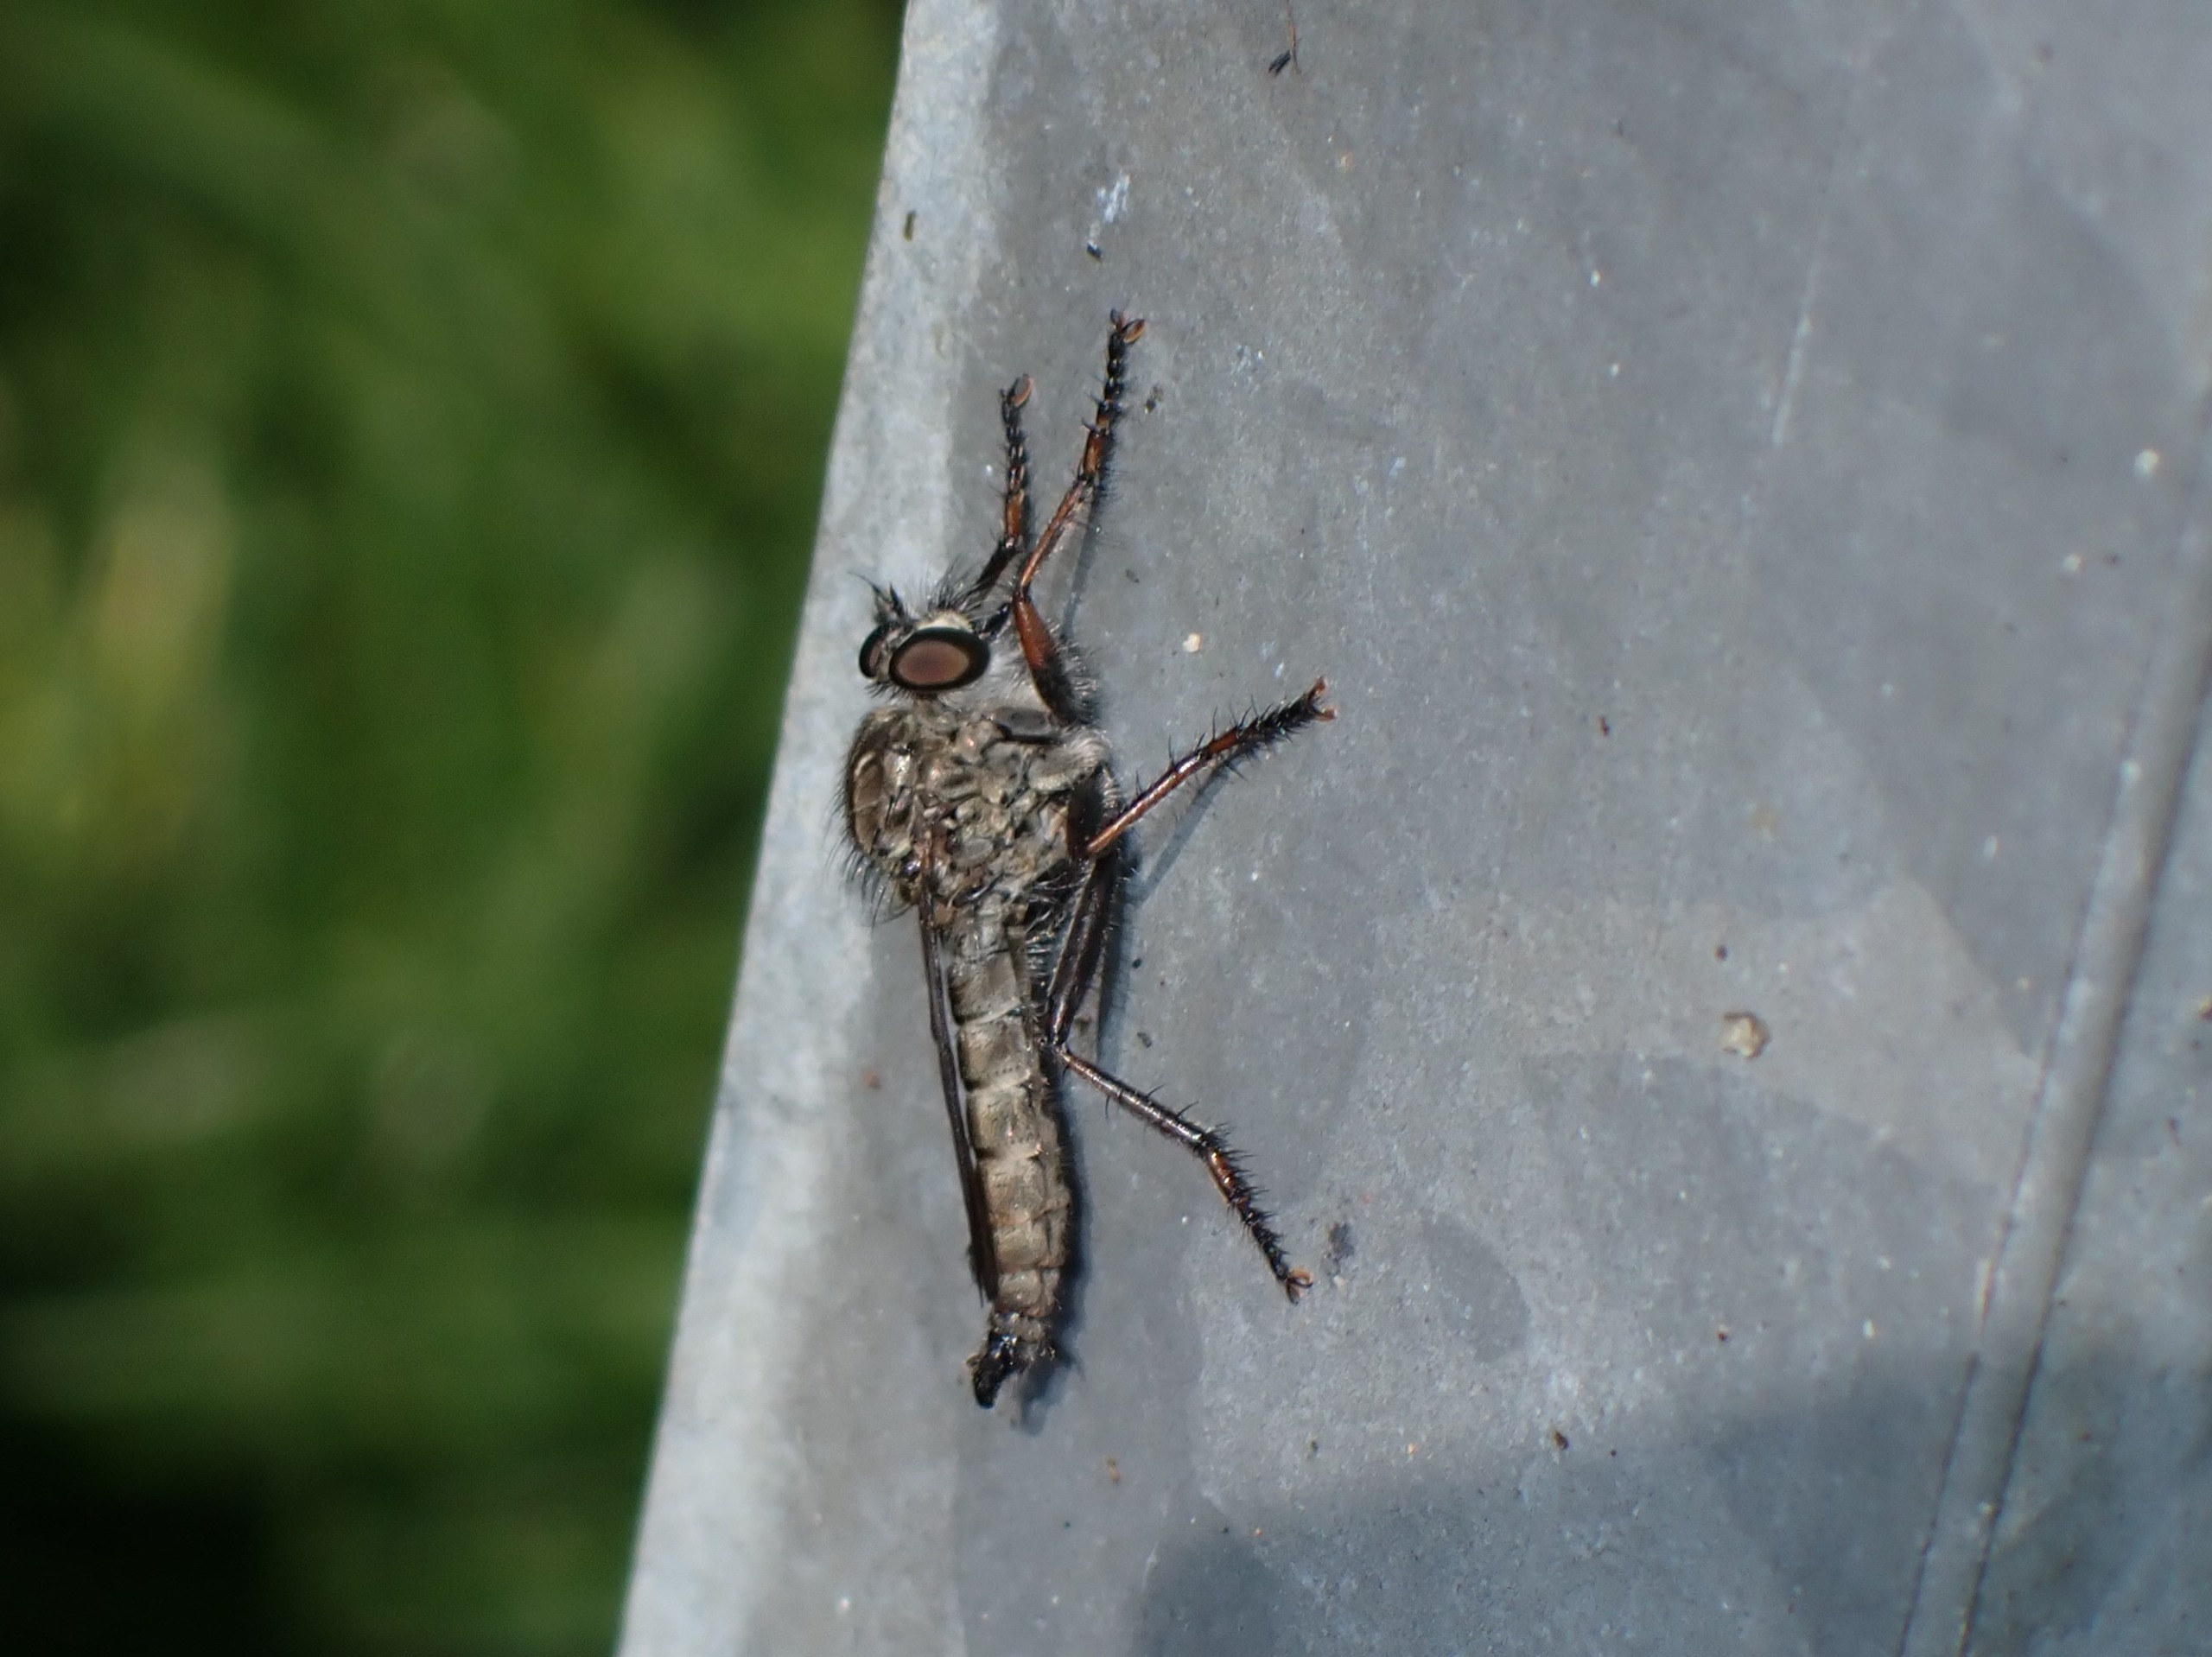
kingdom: Animalia
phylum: Arthropoda
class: Insecta
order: Diptera
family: Asilidae
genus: Machimus
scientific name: Machimus atricapillus
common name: Sort hårrovflue
